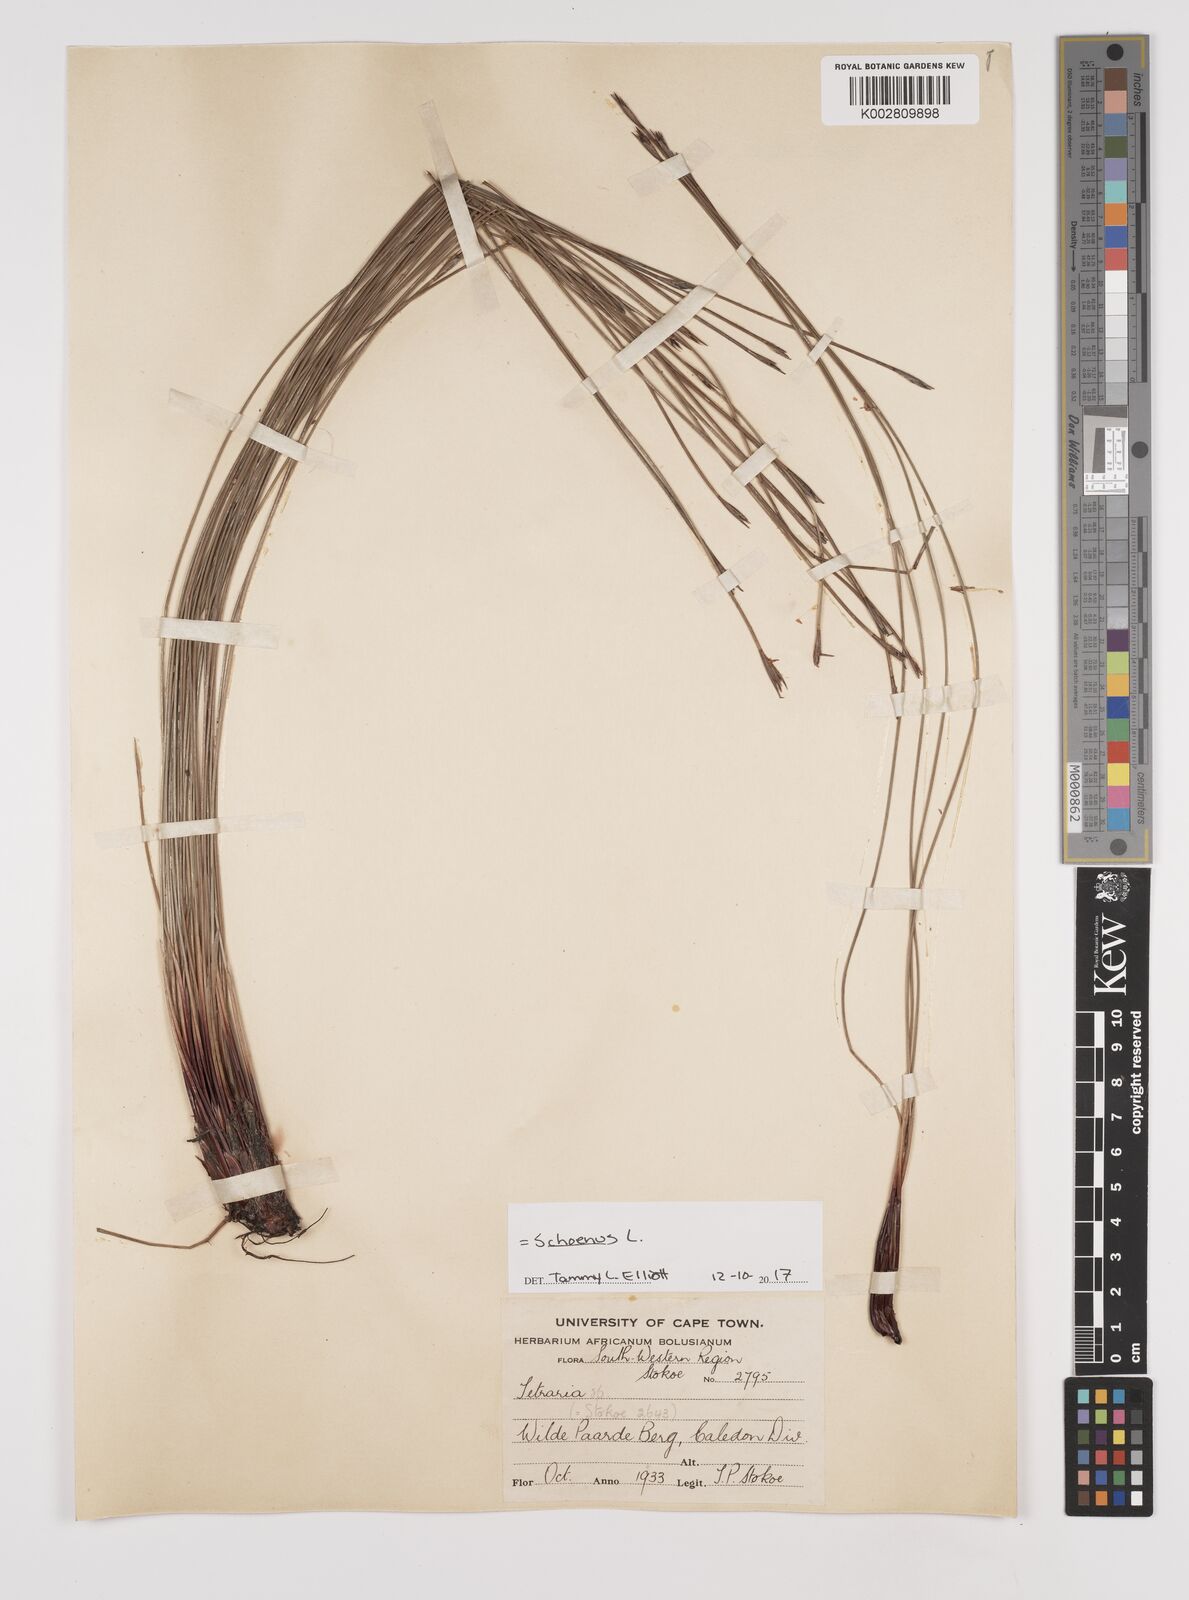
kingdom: Plantae
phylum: Tracheophyta
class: Liliopsida
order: Poales
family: Cyperaceae
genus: Schoenus
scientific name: Schoenus
